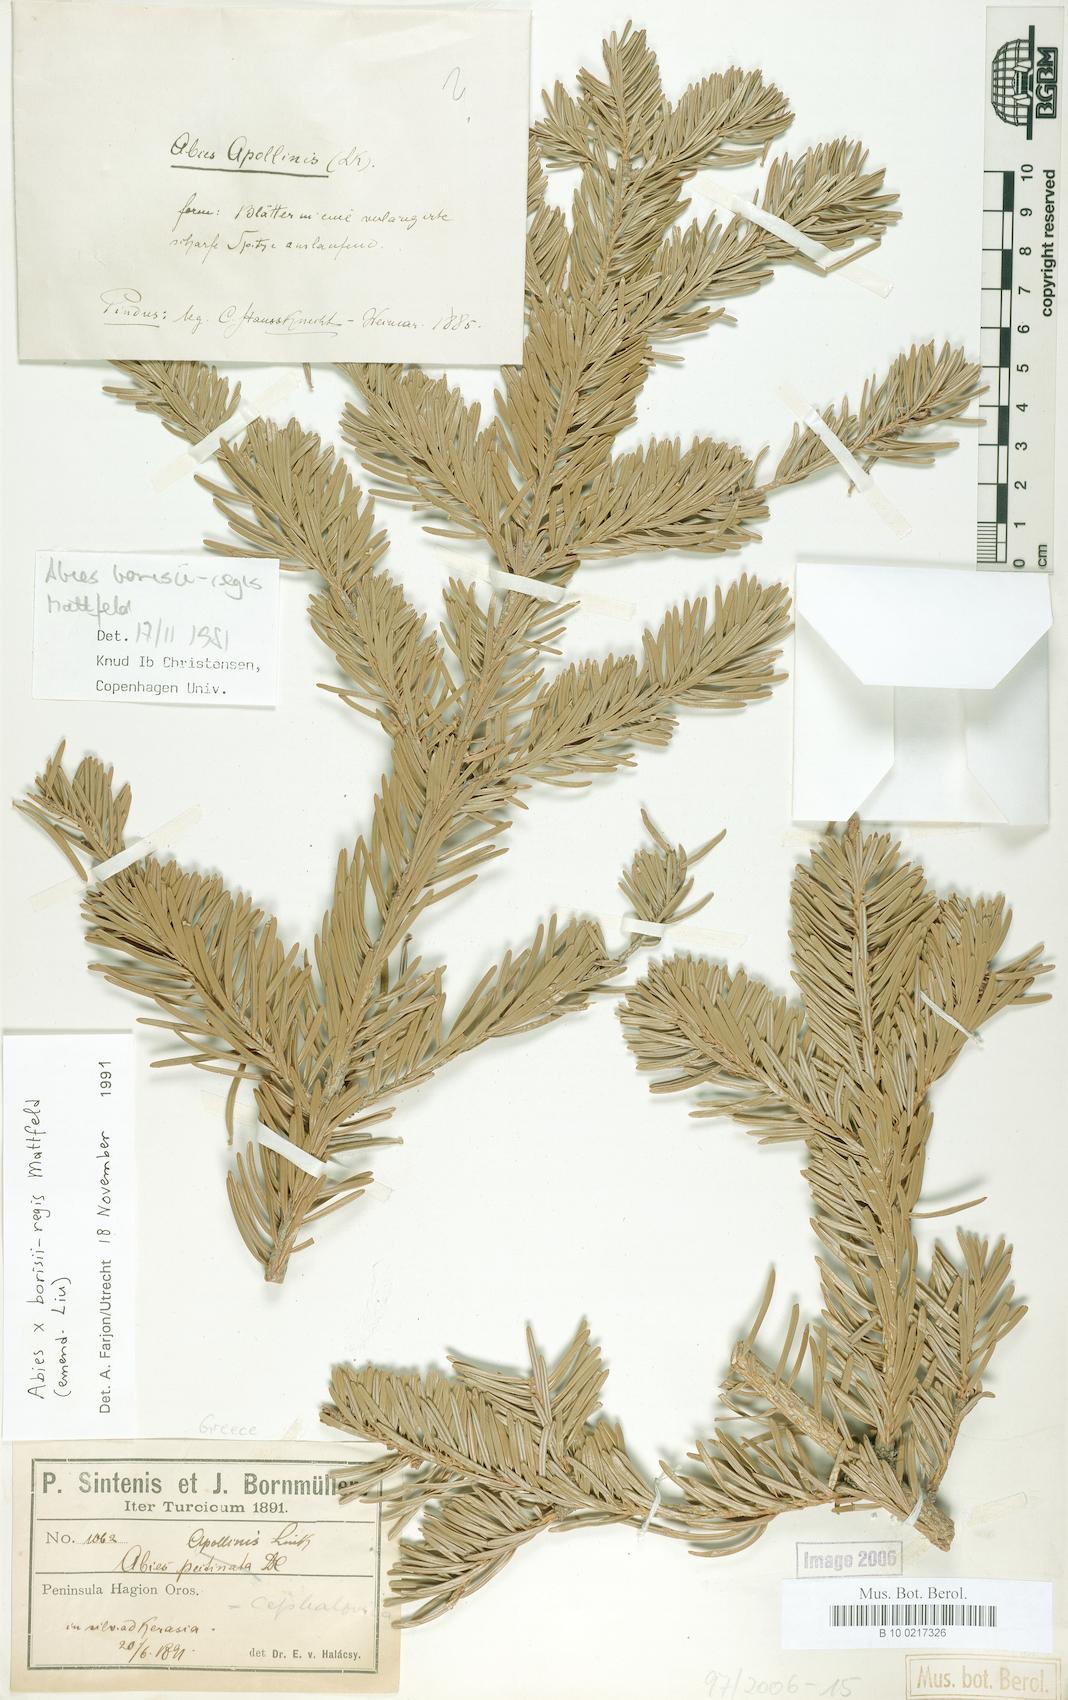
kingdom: Plantae
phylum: Tracheophyta
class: Pinopsida
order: Pinales
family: Pinaceae
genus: Abies
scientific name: Abies borisii-regis
